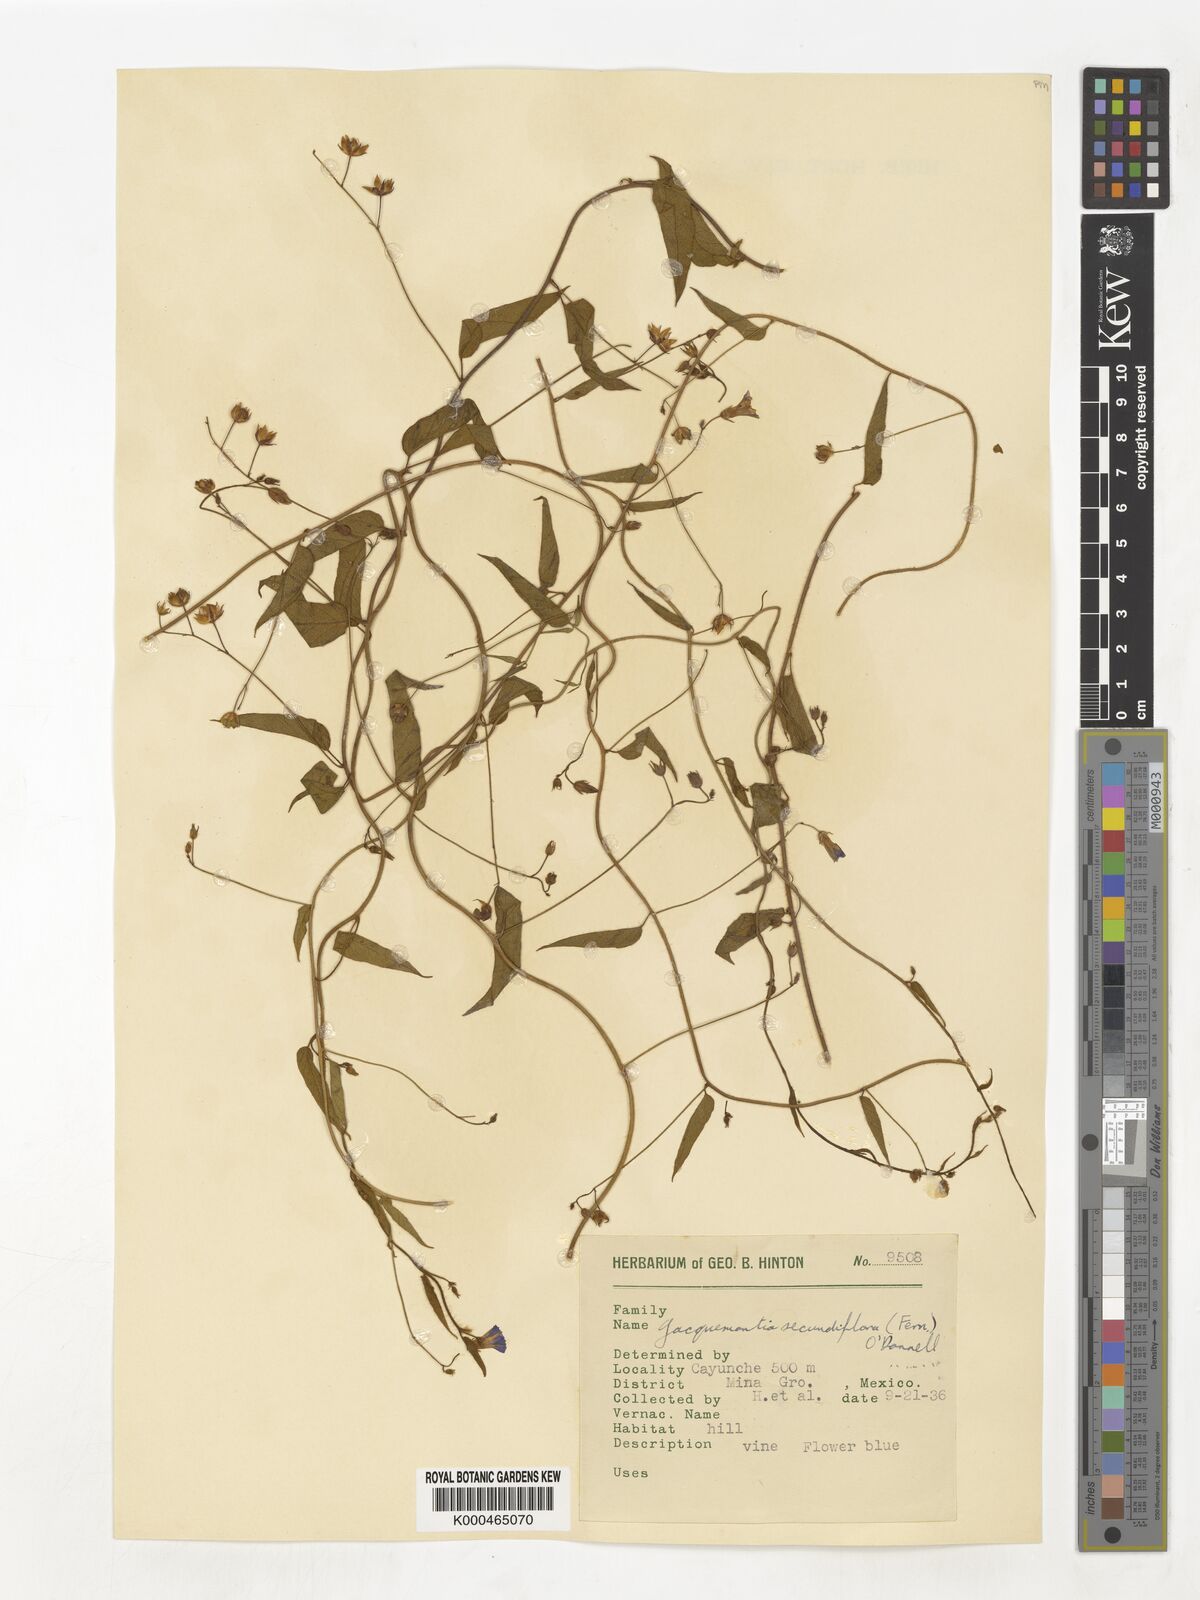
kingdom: Plantae
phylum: Tracheophyta
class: Magnoliopsida
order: Solanales
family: Convolvulaceae
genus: Jacquemontia
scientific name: Jacquemontia agrestis
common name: Midnightblue clustervine
